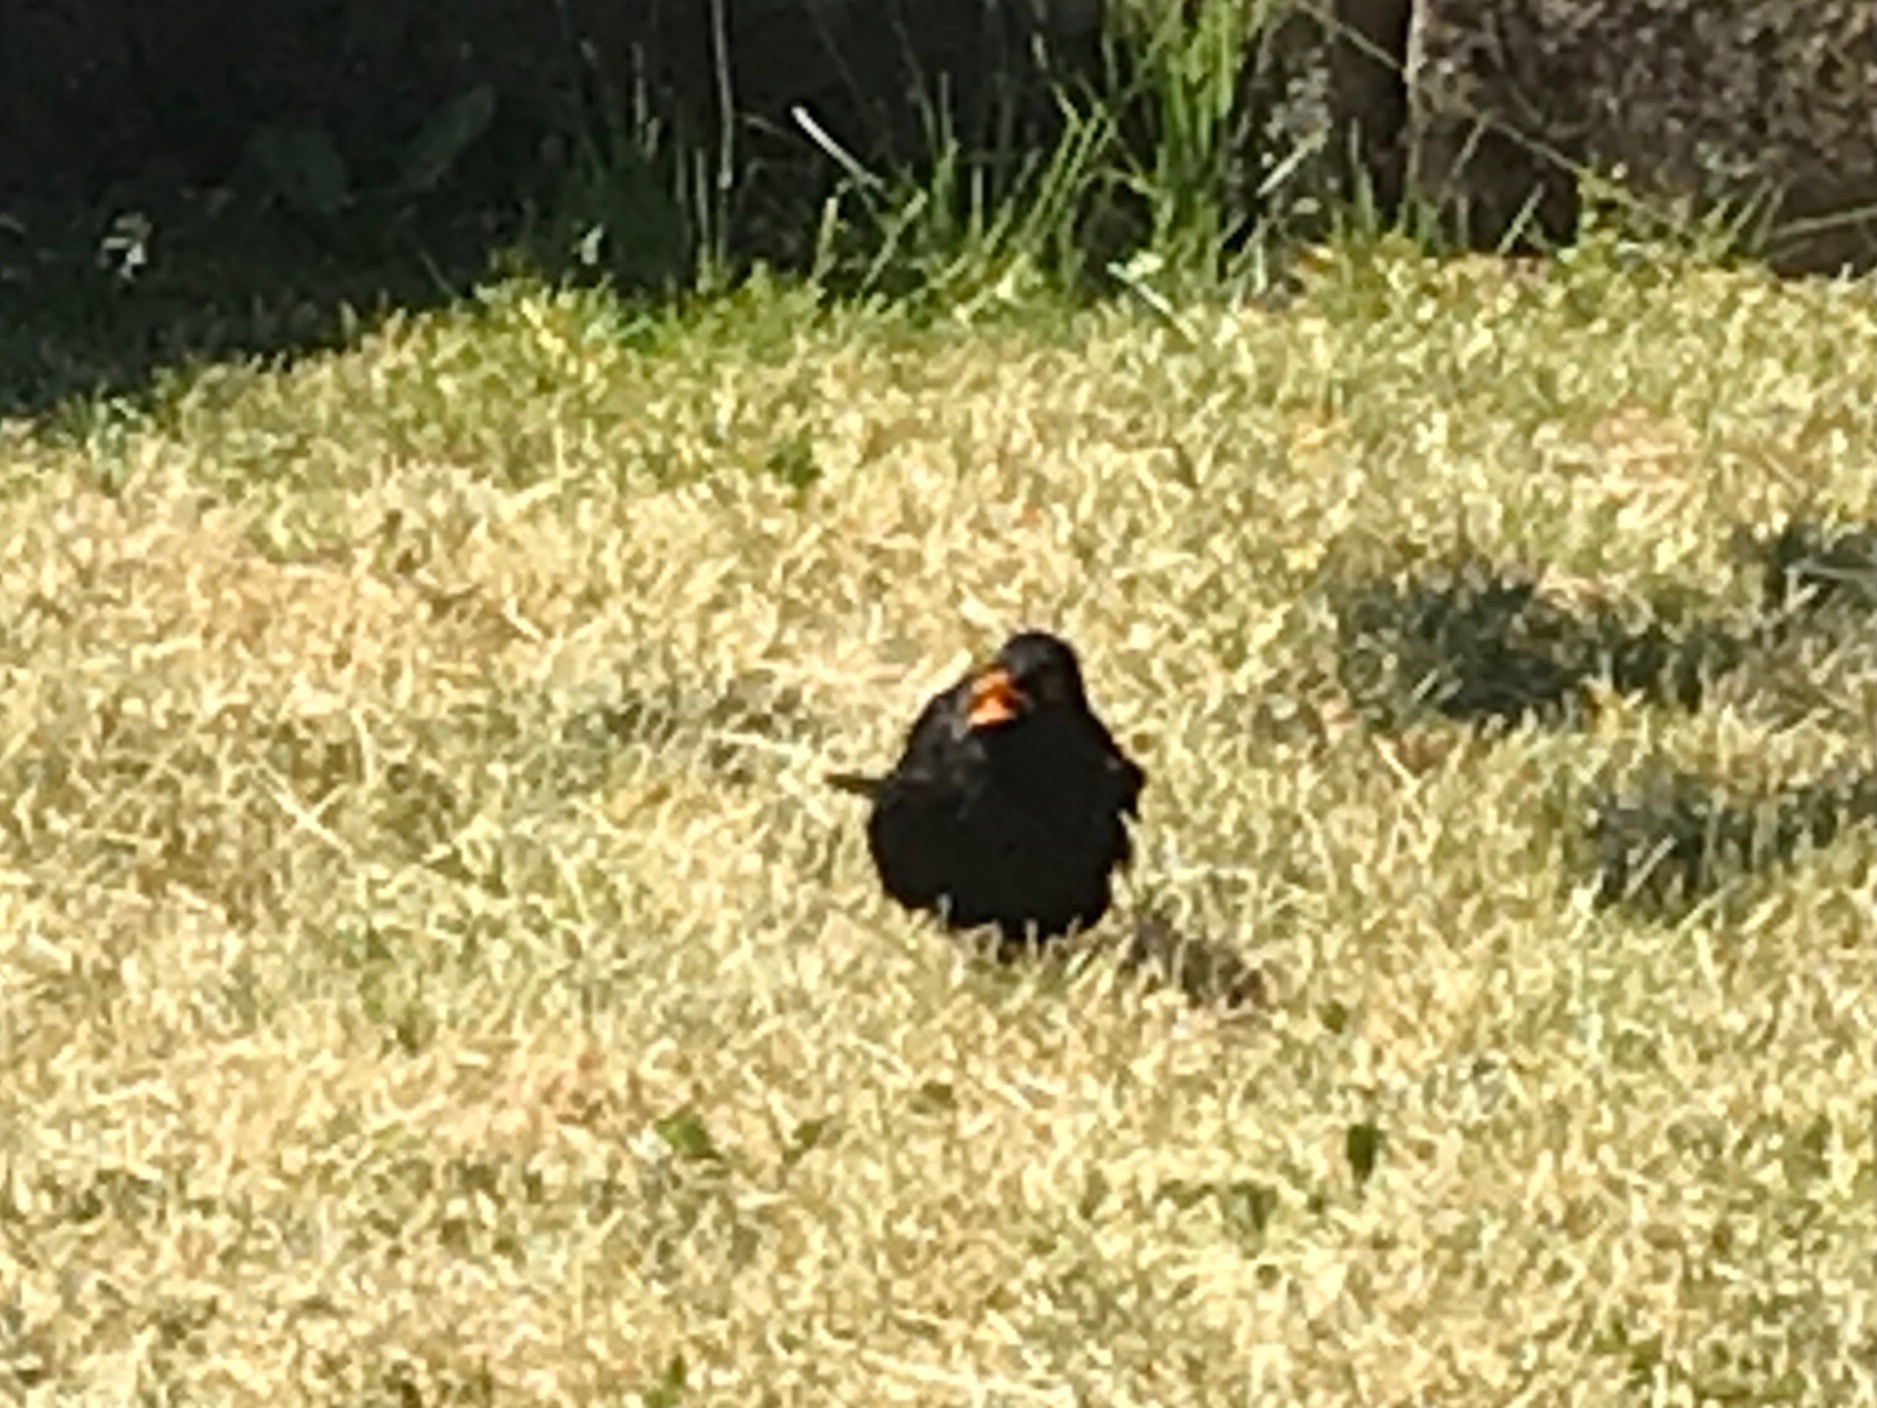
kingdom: Animalia
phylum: Chordata
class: Aves
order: Passeriformes
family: Turdidae
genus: Turdus
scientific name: Turdus merula
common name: Solsort
